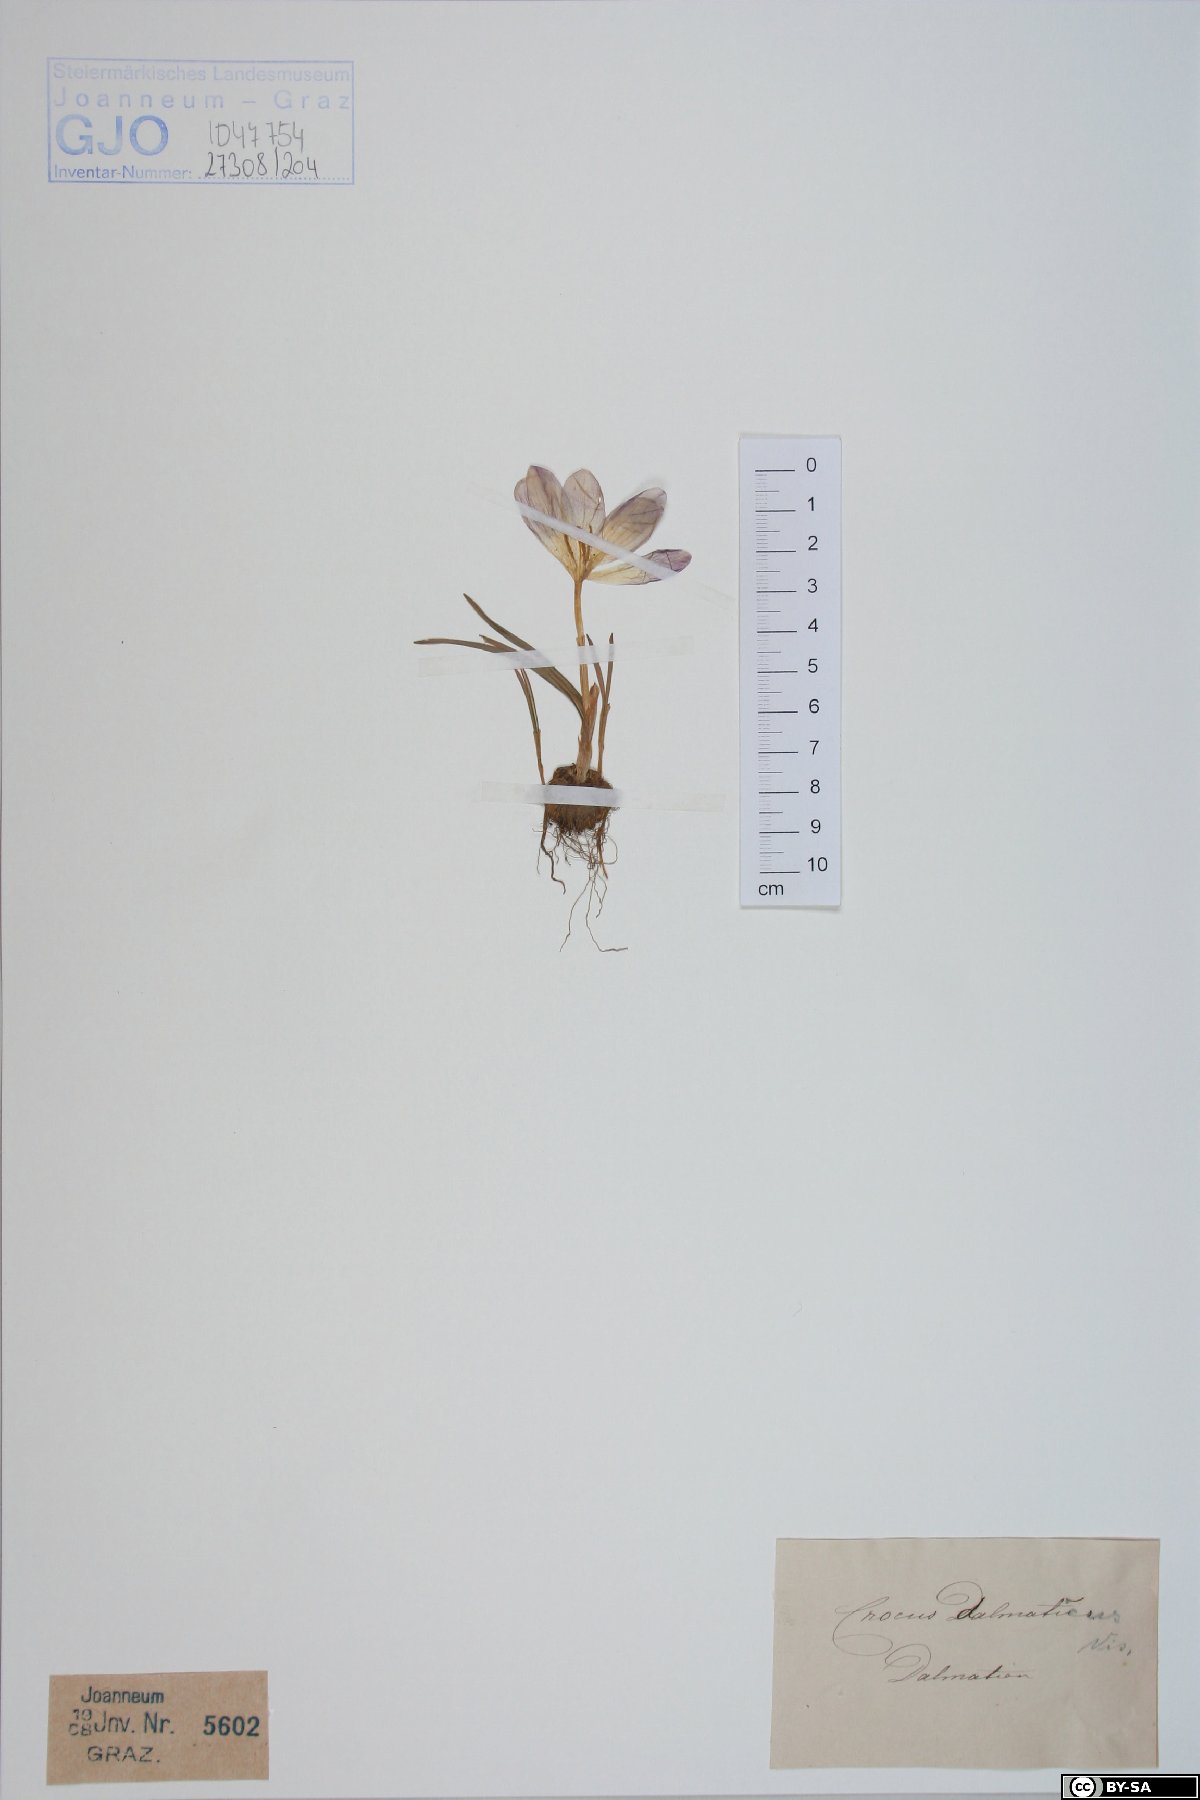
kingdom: Plantae
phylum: Tracheophyta
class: Liliopsida
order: Asparagales
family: Iridaceae
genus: Crocus
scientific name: Crocus dalmaticus
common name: Dalmatian saffron
